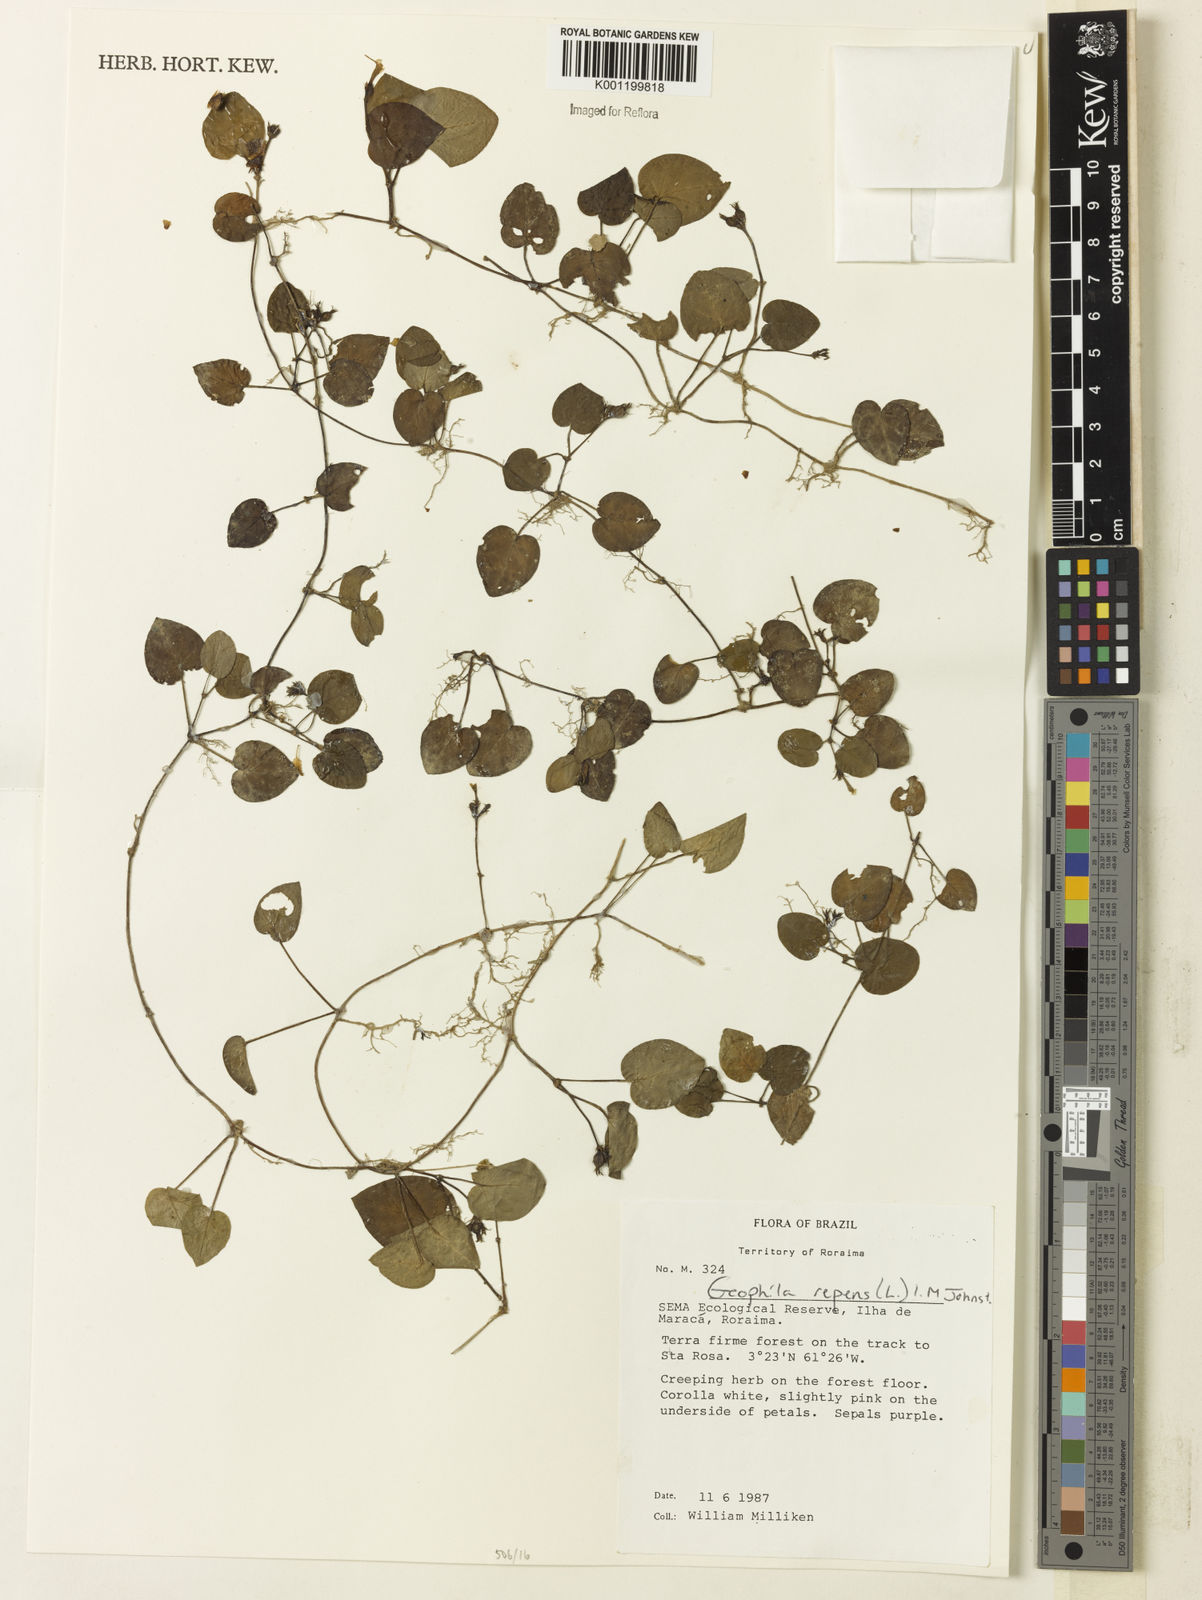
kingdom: Plantae
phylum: Tracheophyta
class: Magnoliopsida
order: Gentianales
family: Rubiaceae
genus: Geophila
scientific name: Geophila repens
